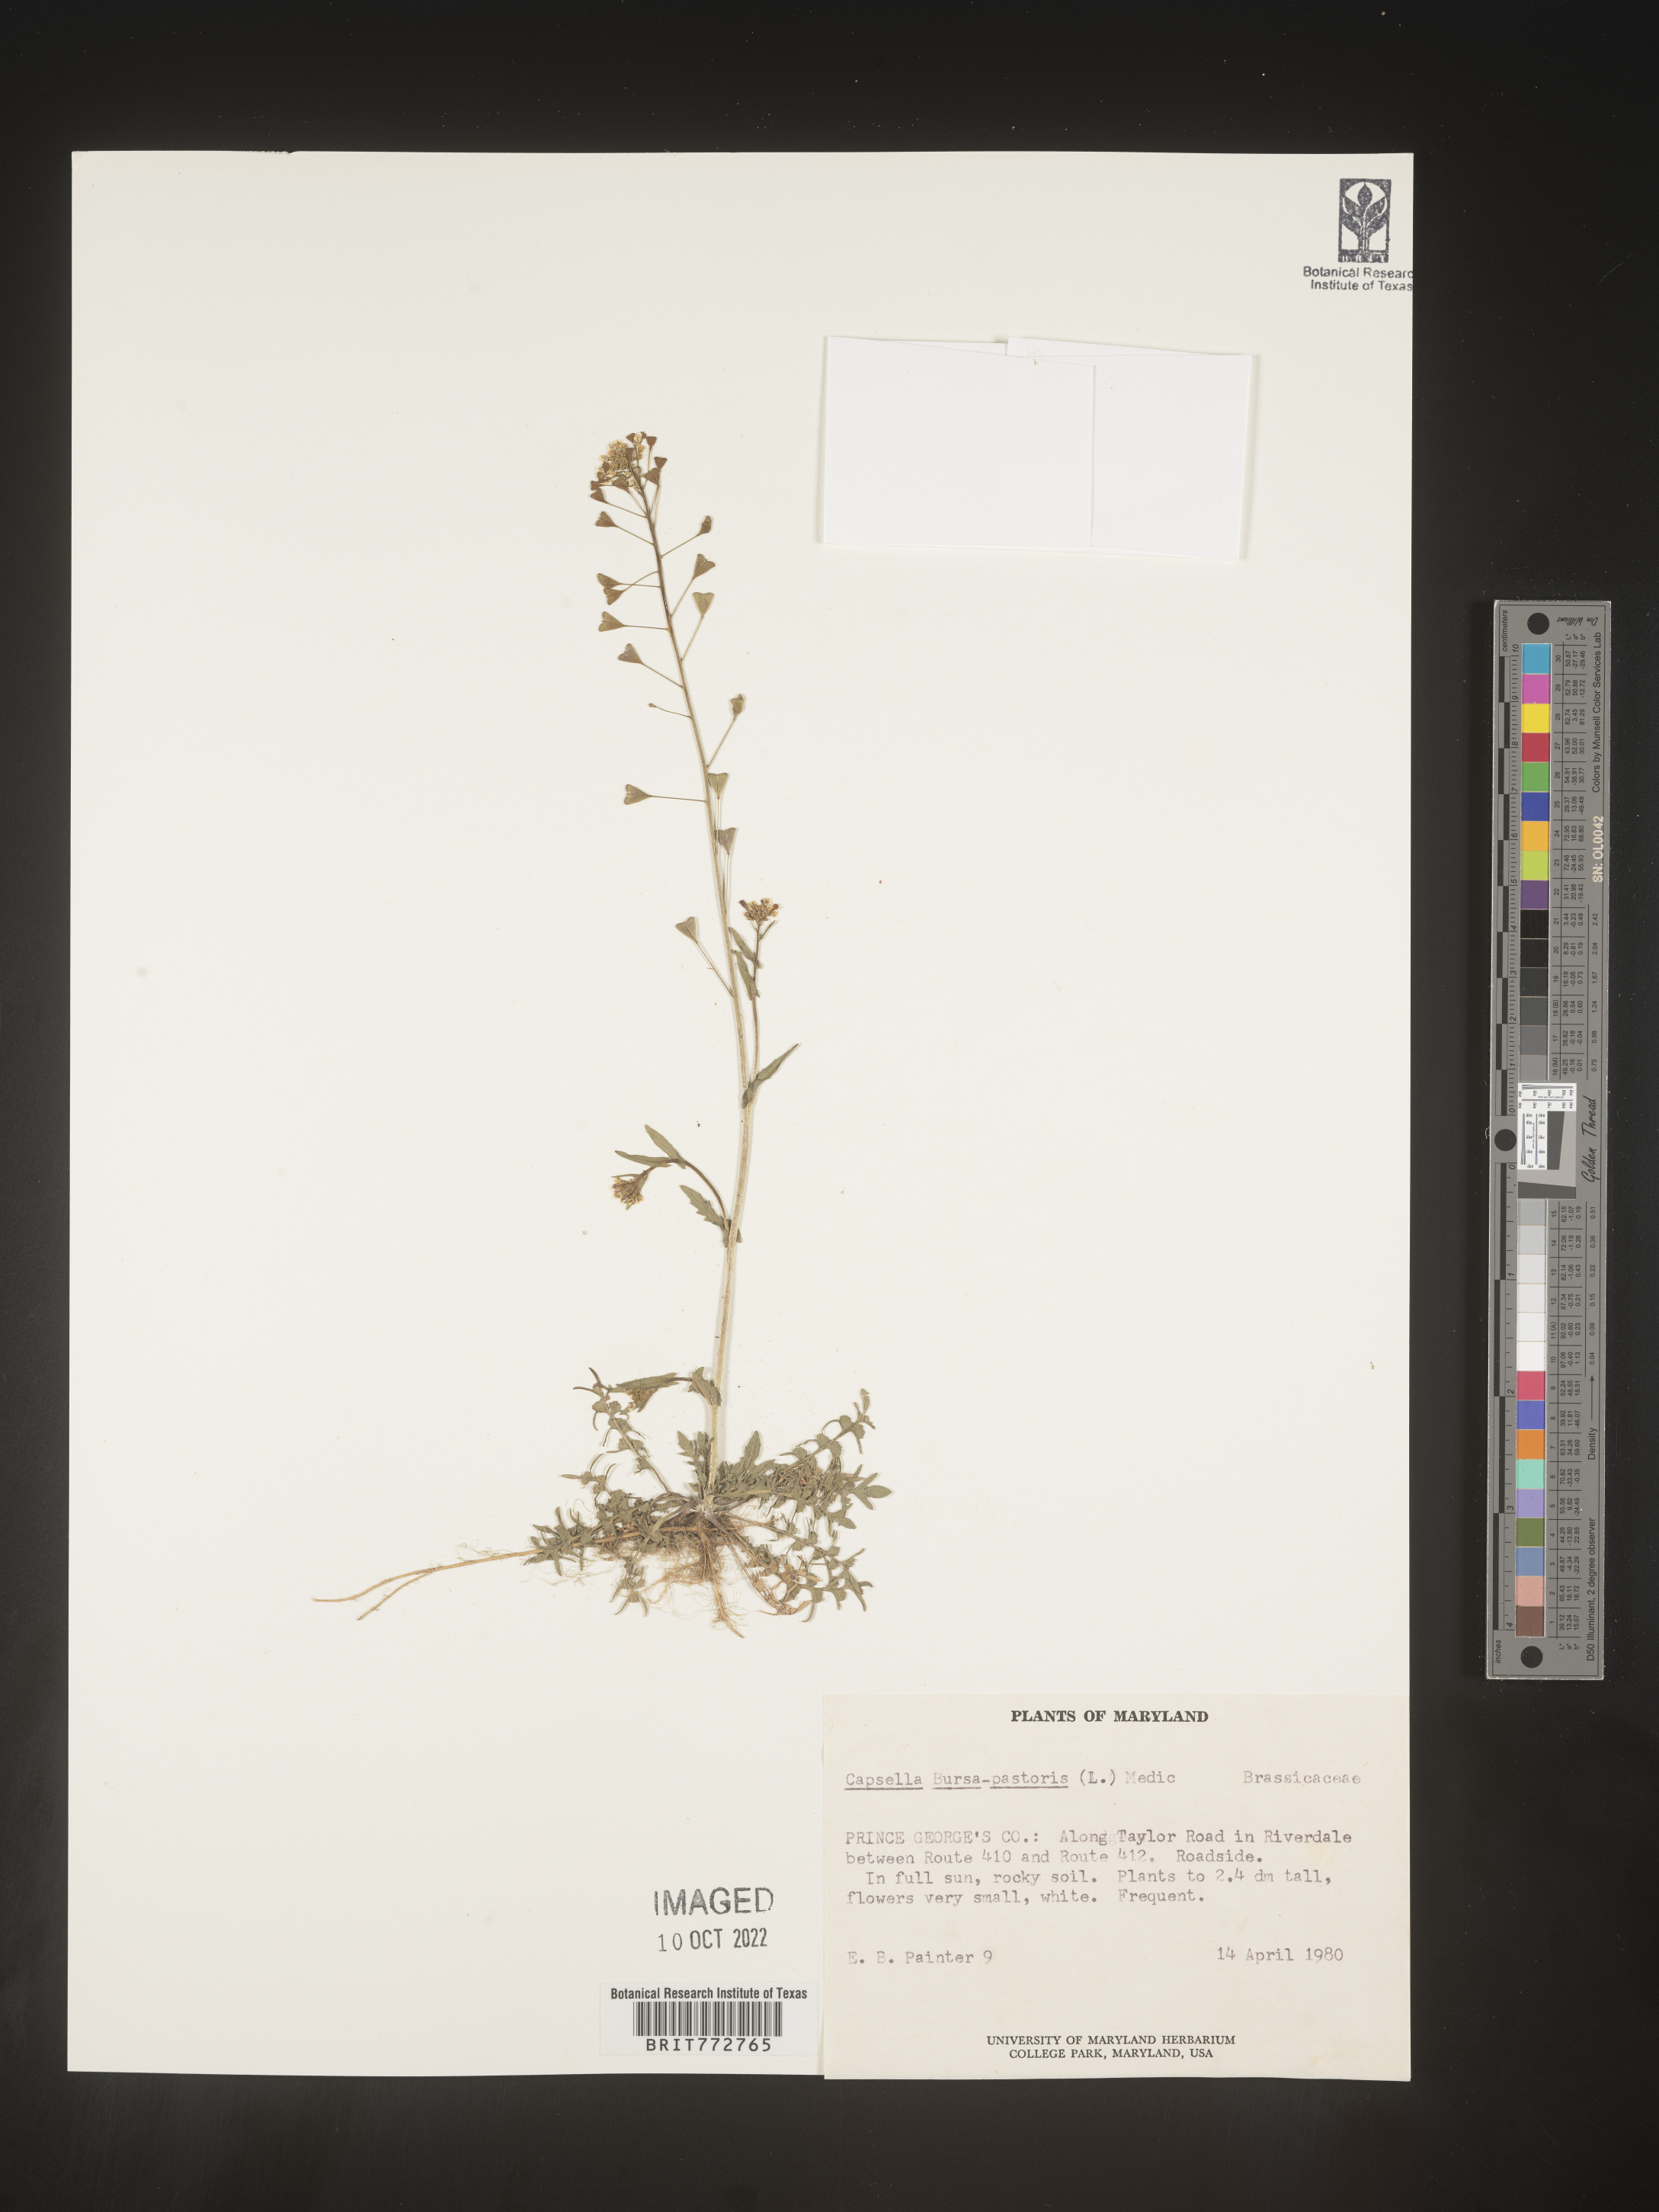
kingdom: Plantae
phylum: Tracheophyta
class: Magnoliopsida
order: Brassicales
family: Brassicaceae
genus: Capsella
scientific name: Capsella bursa-pastoris
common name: Shepherd's purse
